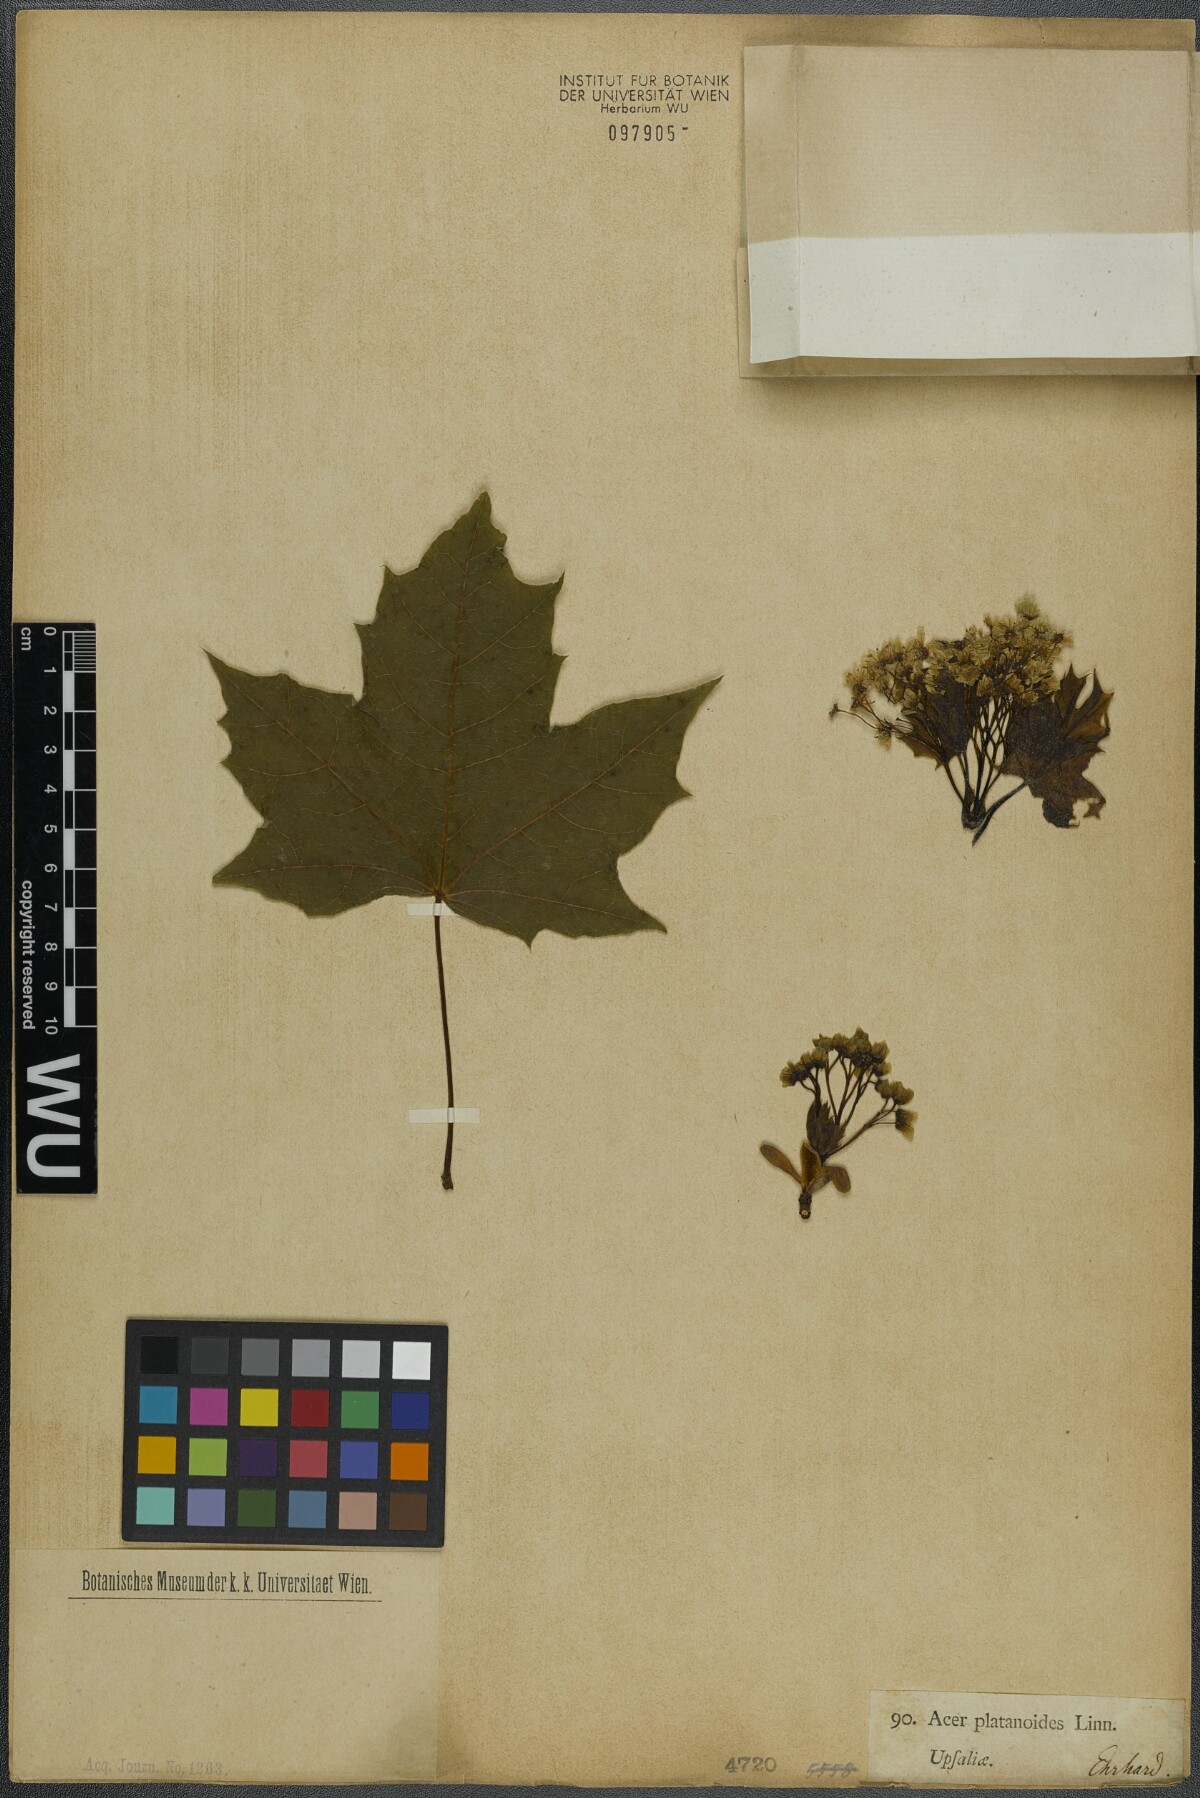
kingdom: Plantae
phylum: Tracheophyta
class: Magnoliopsida
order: Sapindales
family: Sapindaceae
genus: Acer
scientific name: Acer platanoides
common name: Norway maple
